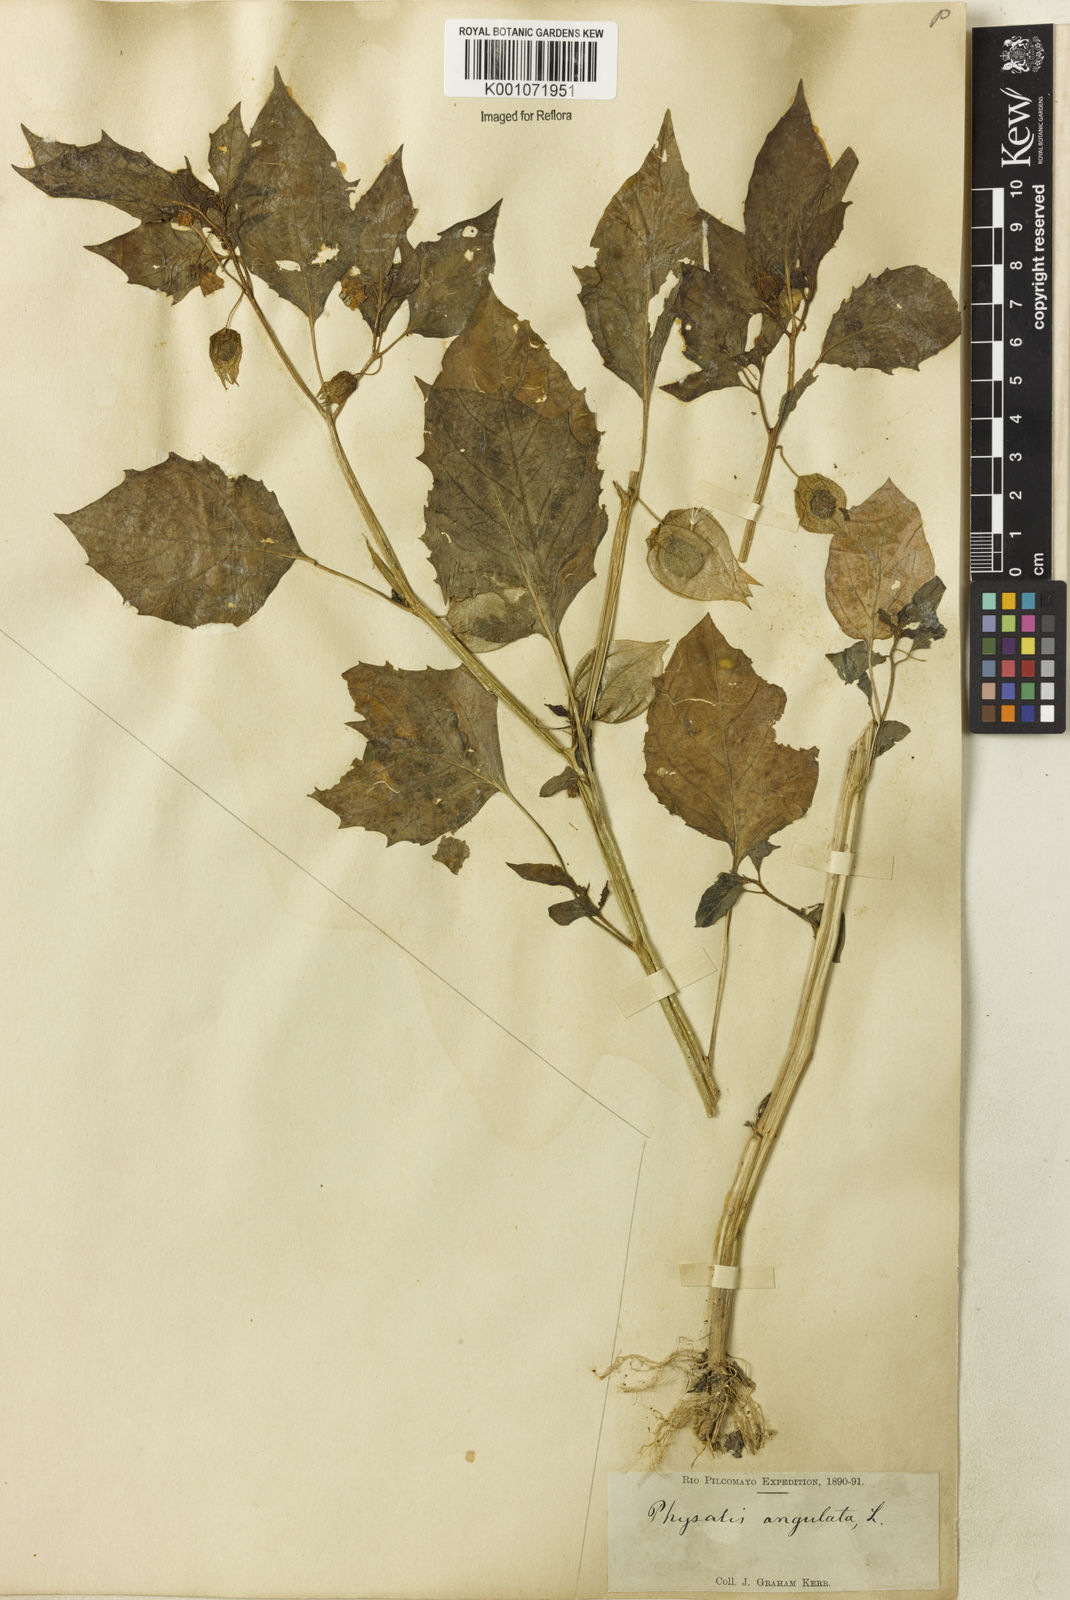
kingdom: Plantae
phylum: Tracheophyta
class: Magnoliopsida
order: Solanales
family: Solanaceae
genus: Physalis
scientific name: Physalis angulata
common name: Angular winter-cherry
